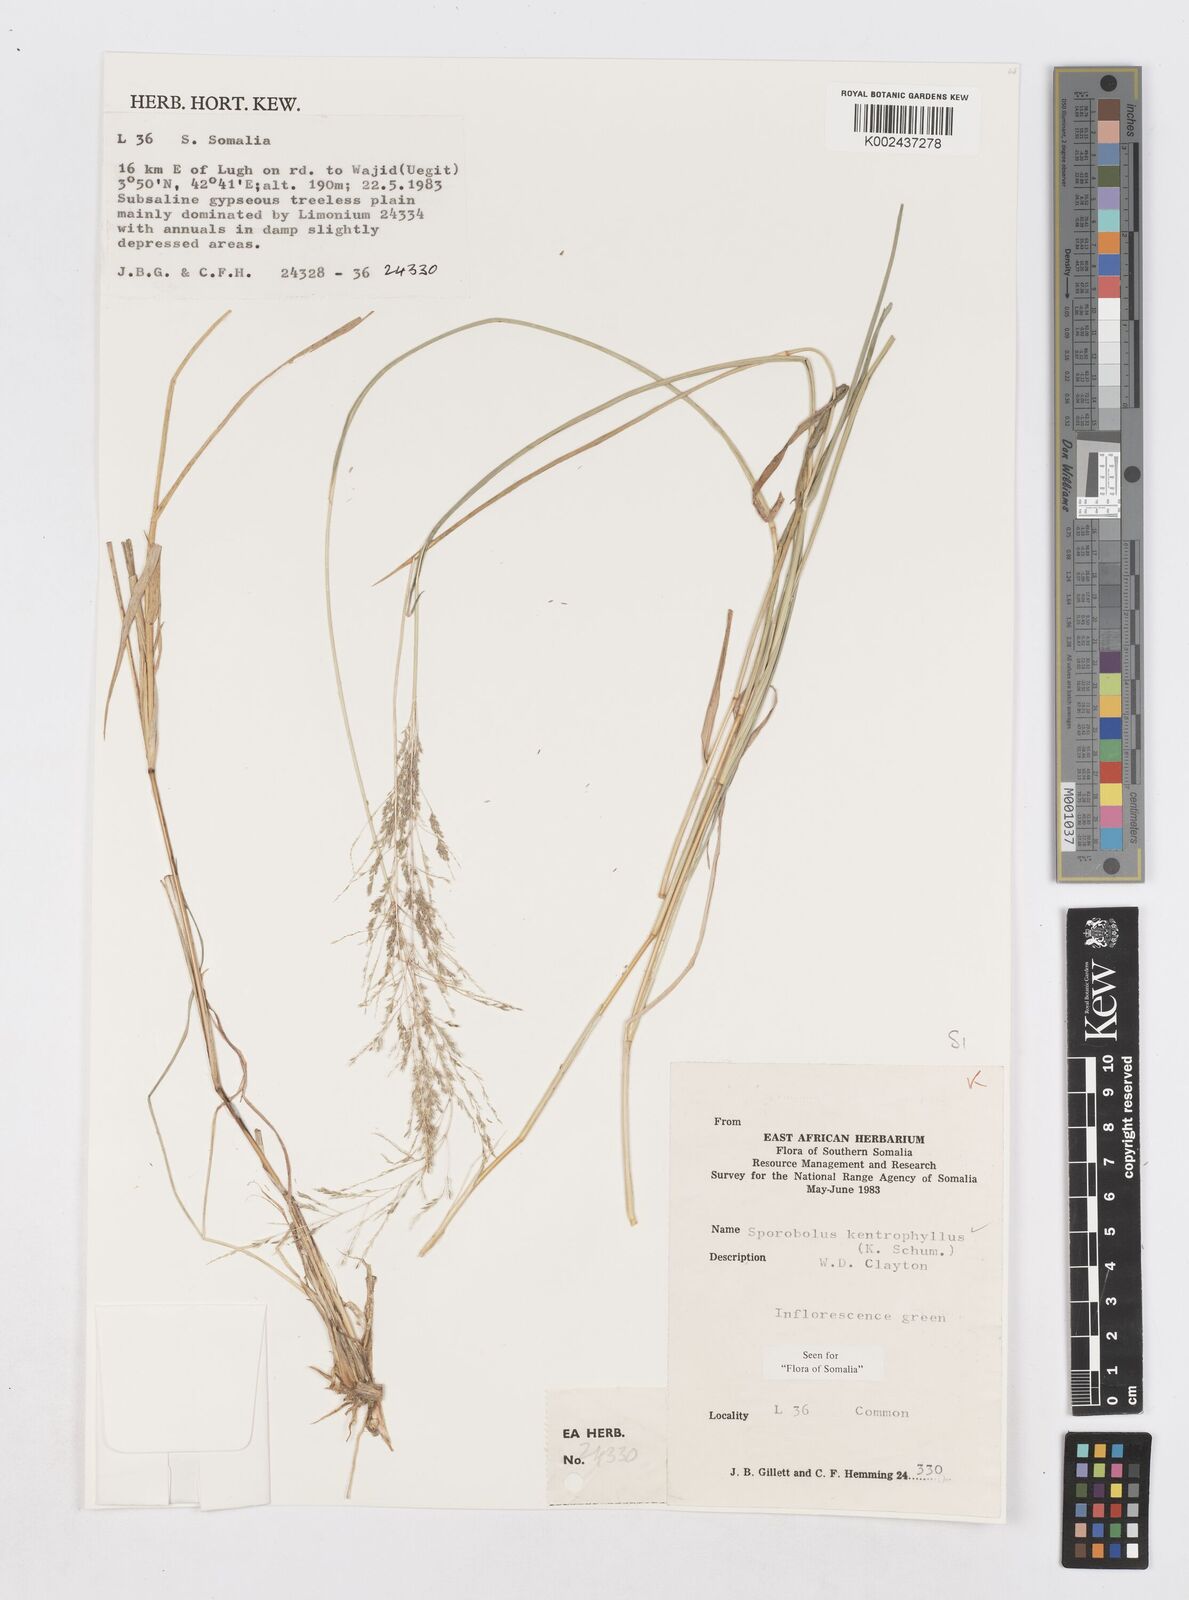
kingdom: Plantae
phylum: Tracheophyta
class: Liliopsida
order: Poales
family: Poaceae
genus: Sporobolus
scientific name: Sporobolus ioclados
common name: Pan dropseed
